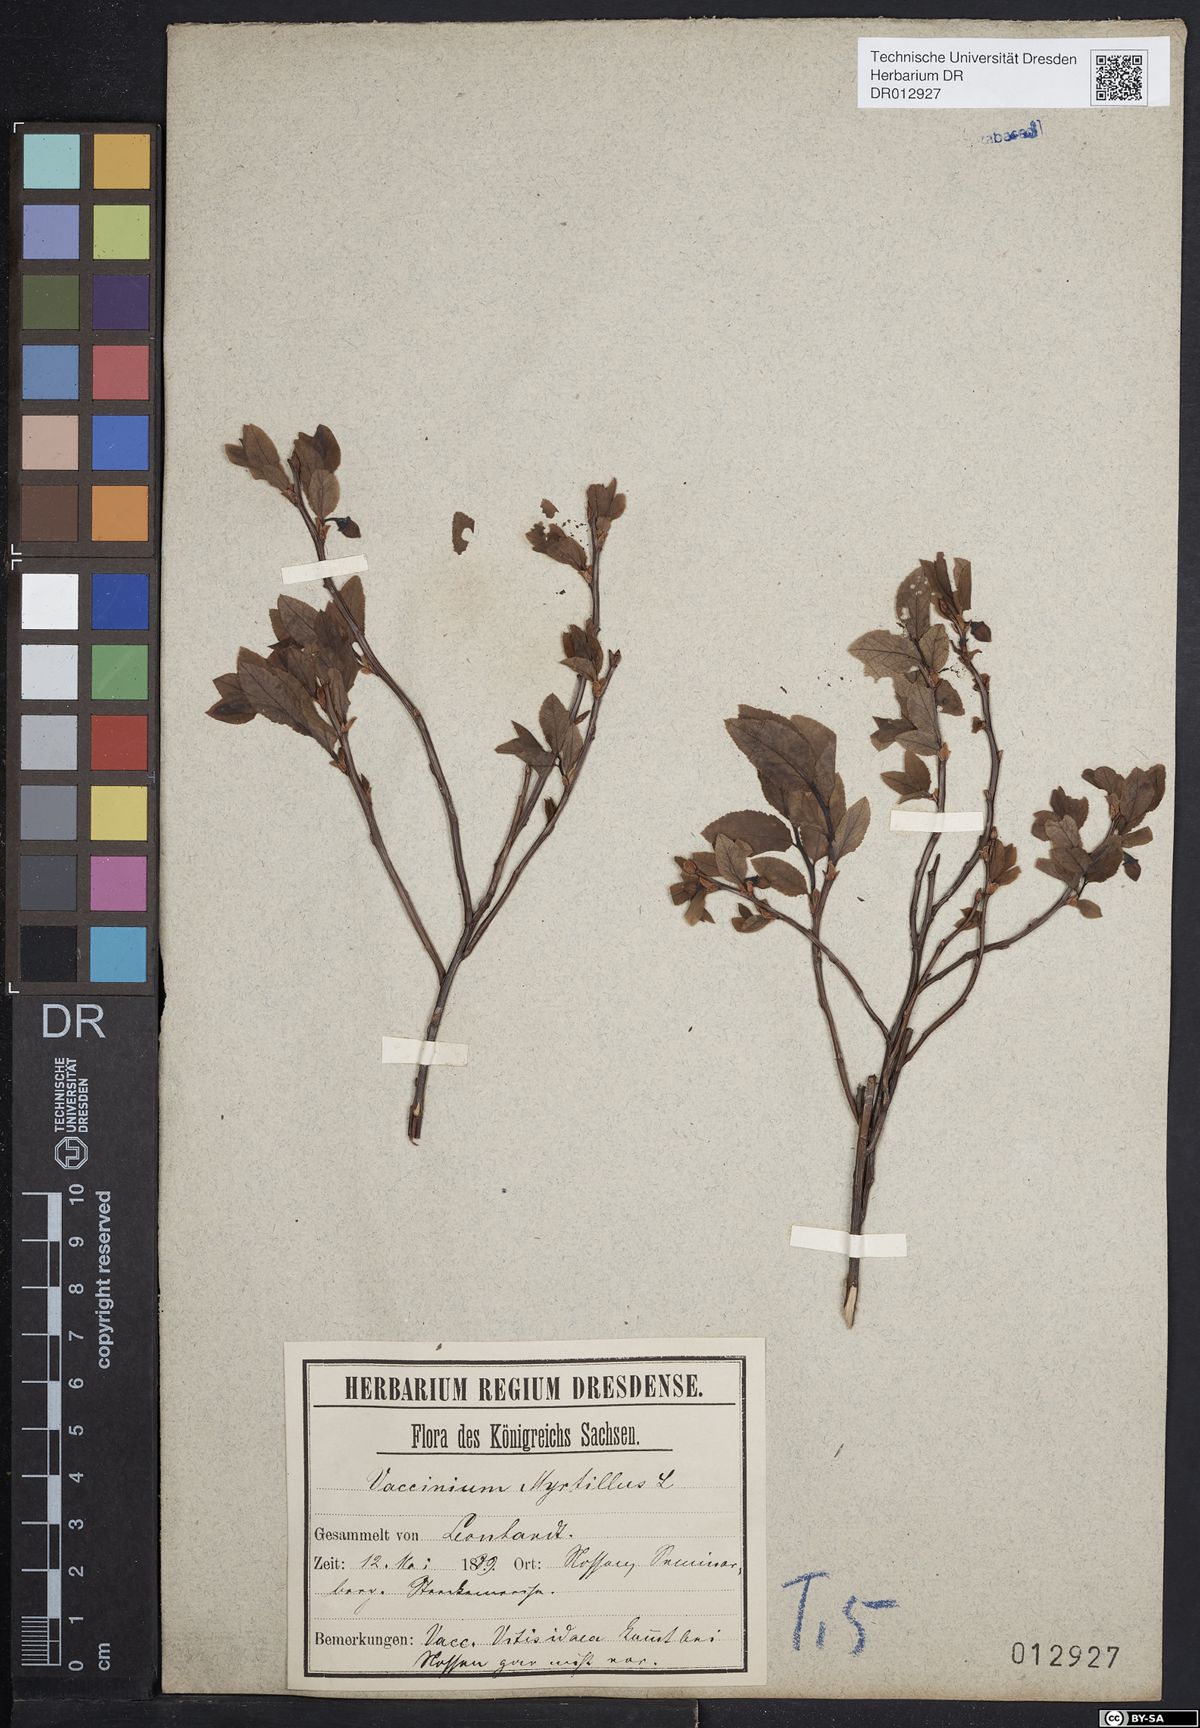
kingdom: Plantae
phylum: Tracheophyta
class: Magnoliopsida
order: Ericales
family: Ericaceae
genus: Vaccinium
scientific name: Vaccinium myrtillus
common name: Bilberry
